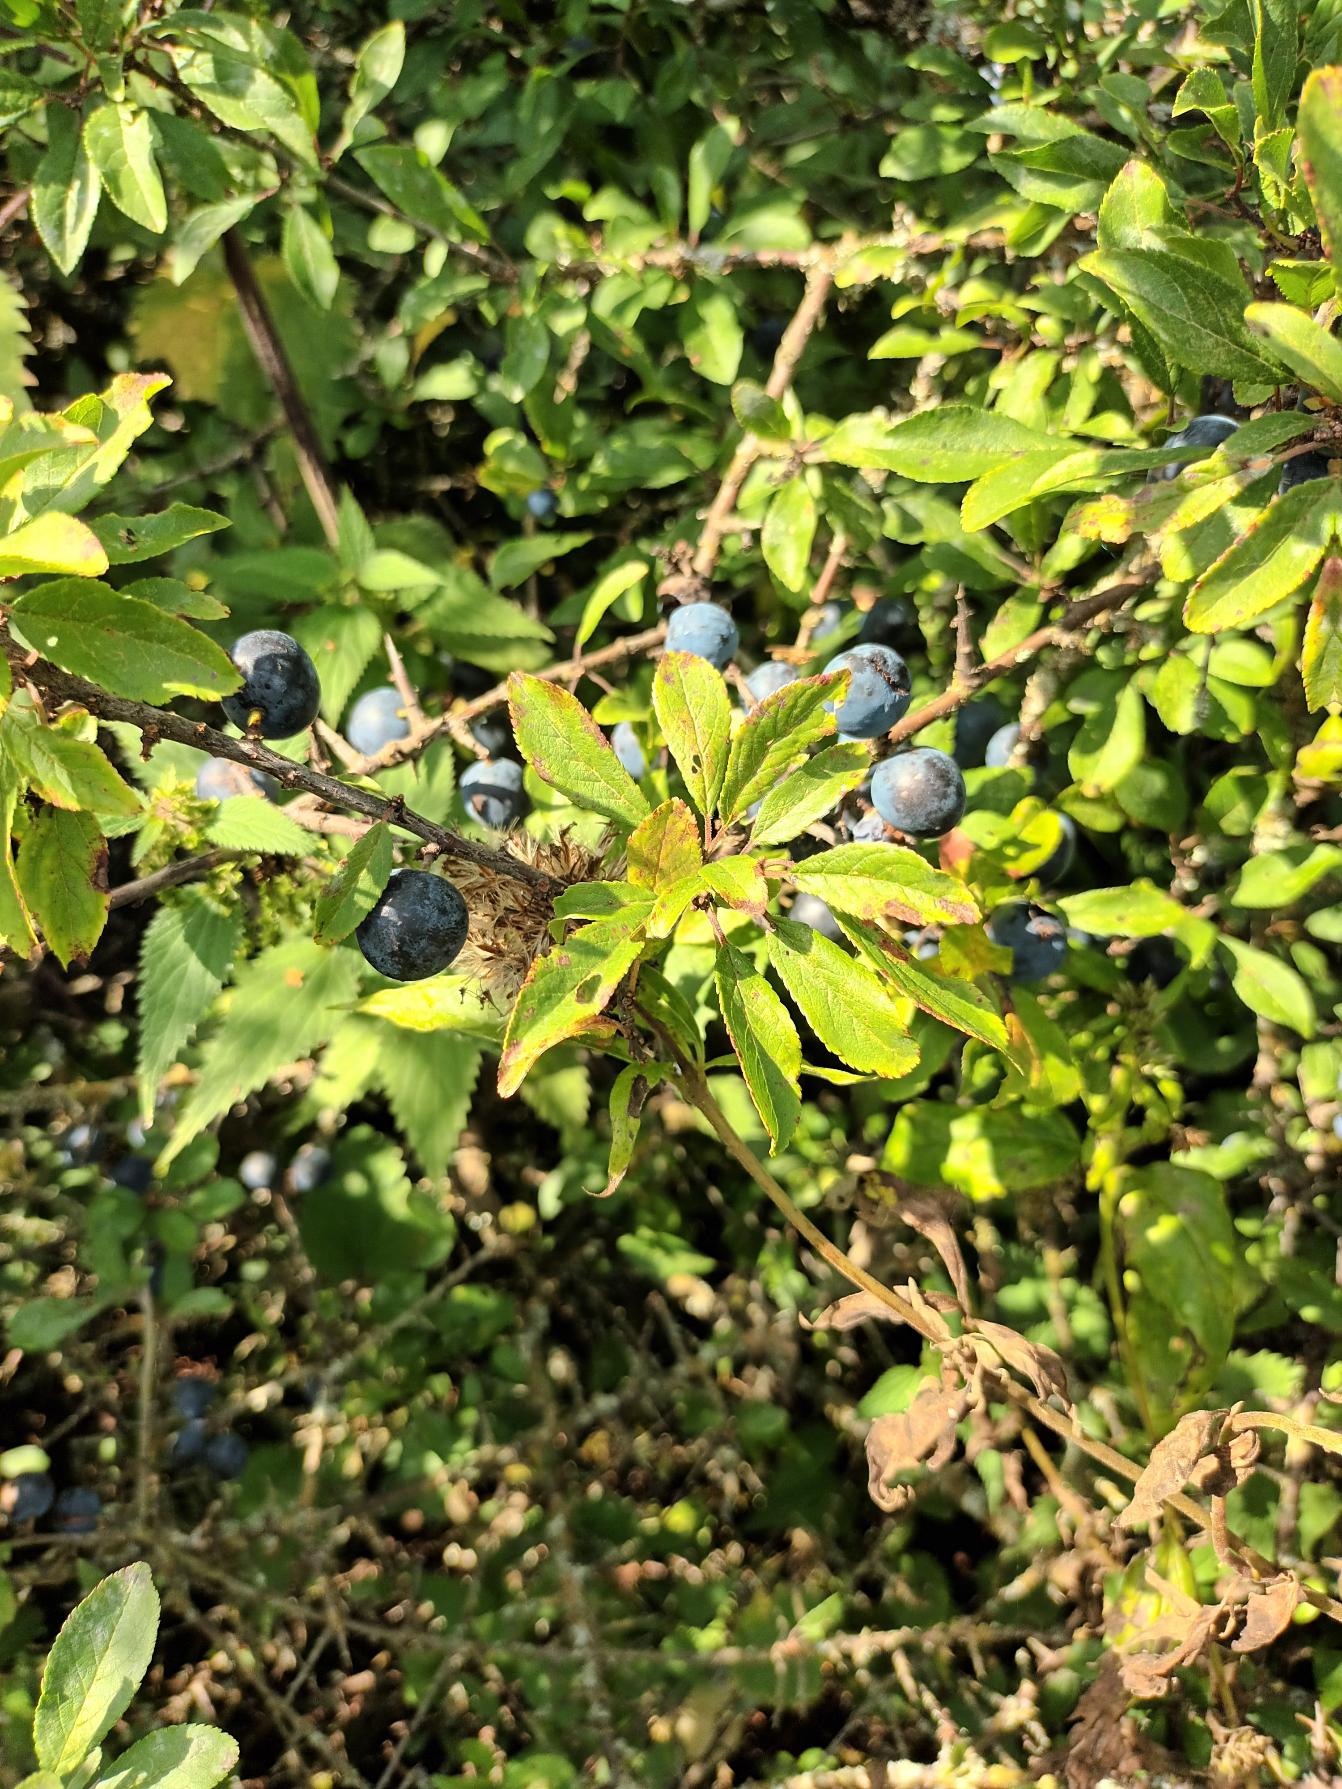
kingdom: Plantae
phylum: Tracheophyta
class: Magnoliopsida
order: Rosales
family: Rosaceae
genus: Prunus
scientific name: Prunus spinosa
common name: Slåen
